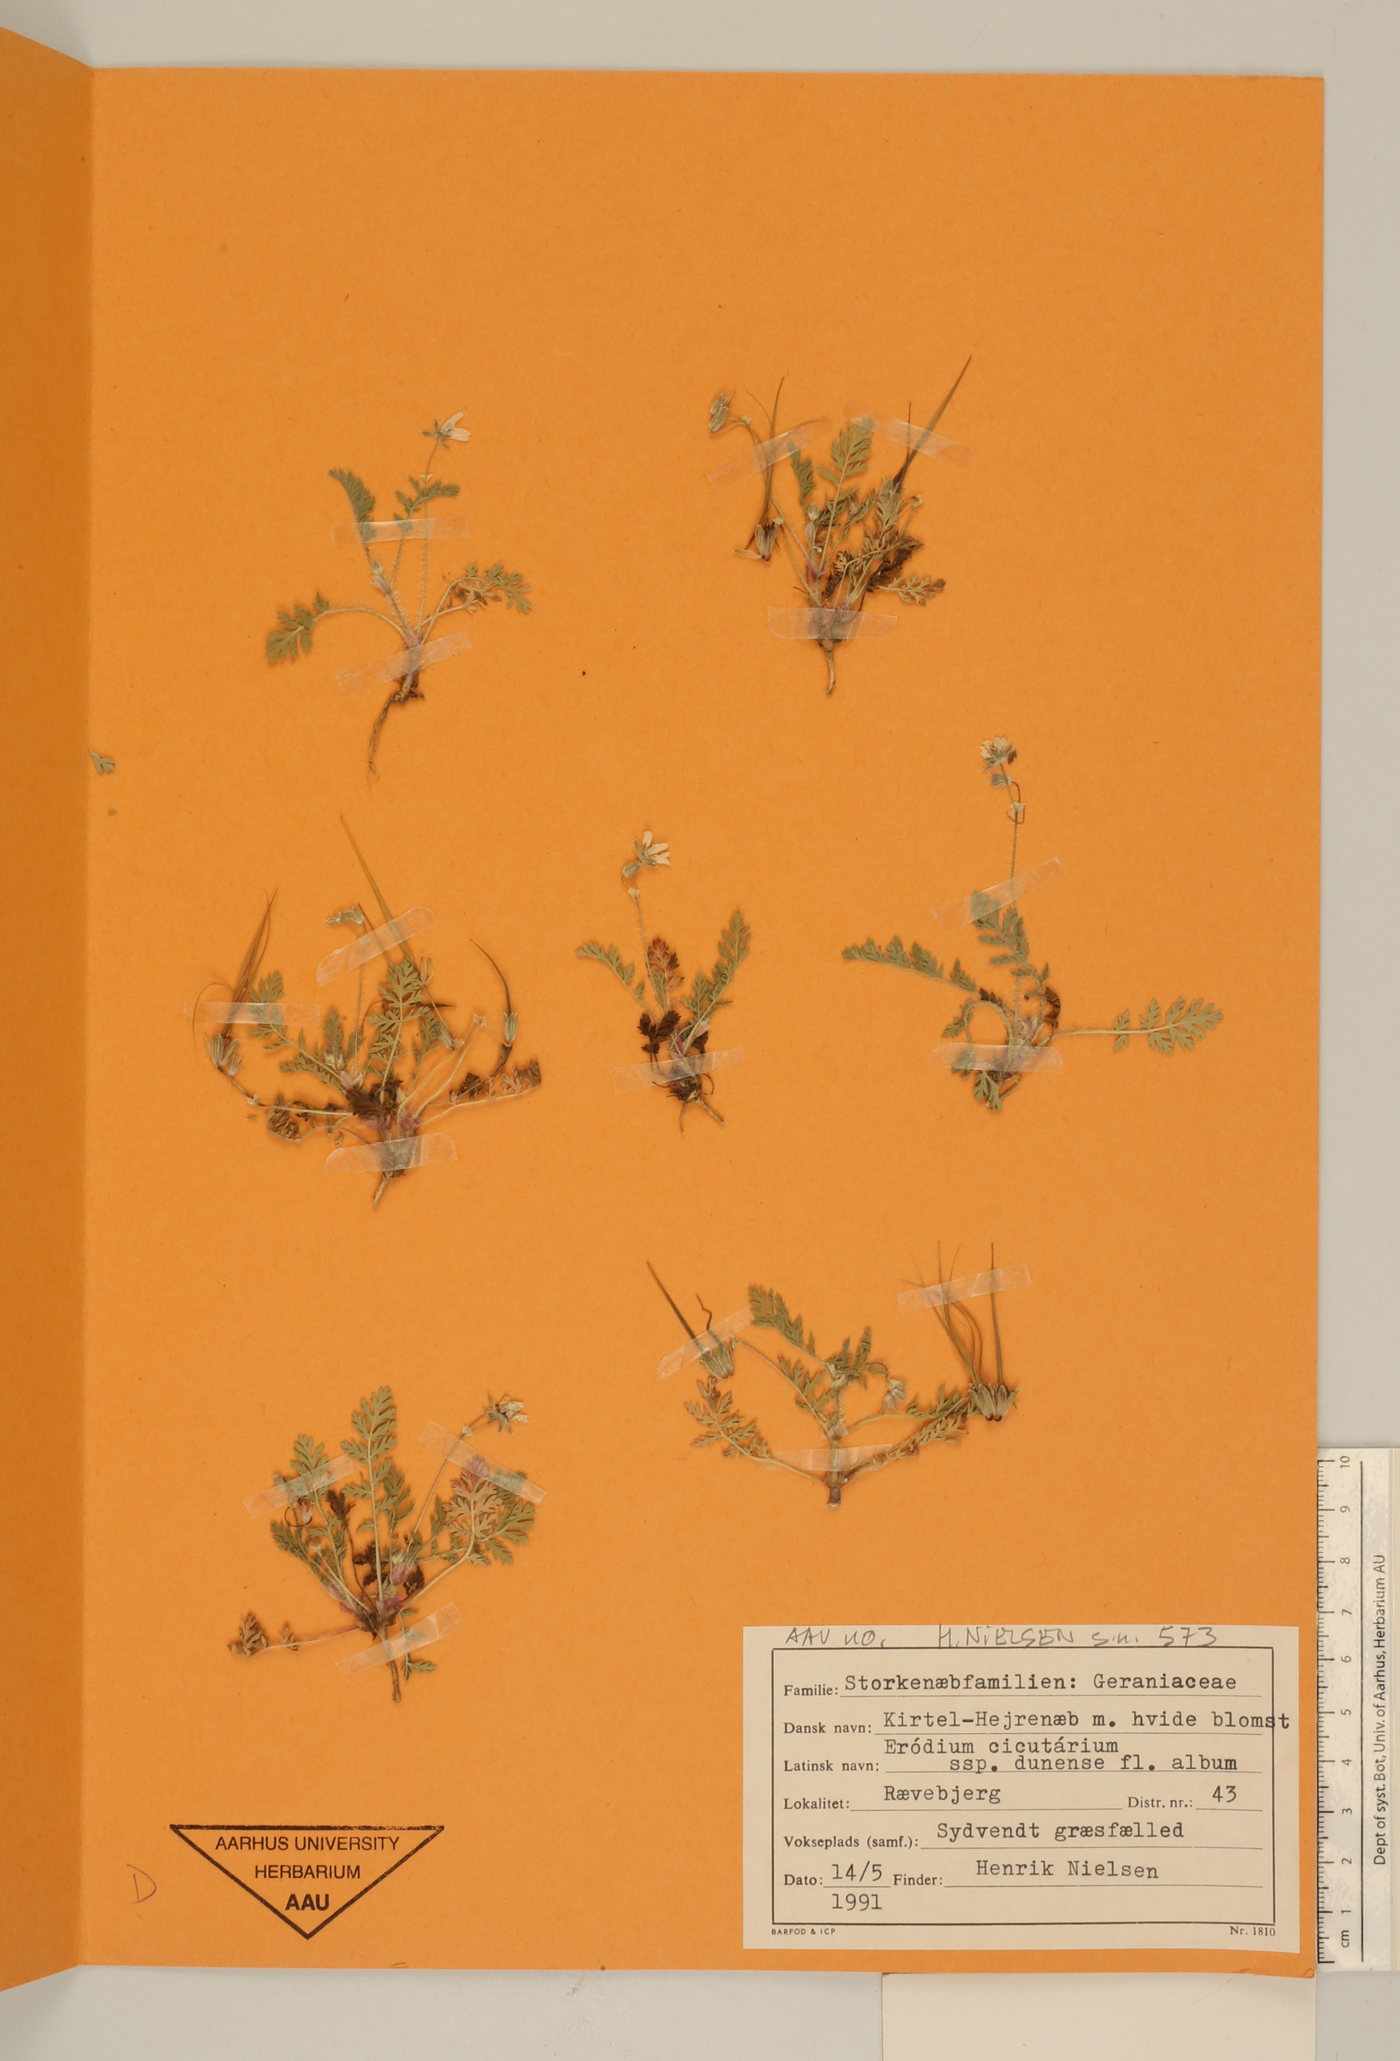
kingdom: Plantae
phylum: Tracheophyta
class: Magnoliopsida
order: Geraniales
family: Geraniaceae
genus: Erodium
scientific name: Erodium cicutarium
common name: Common stork's-bill
